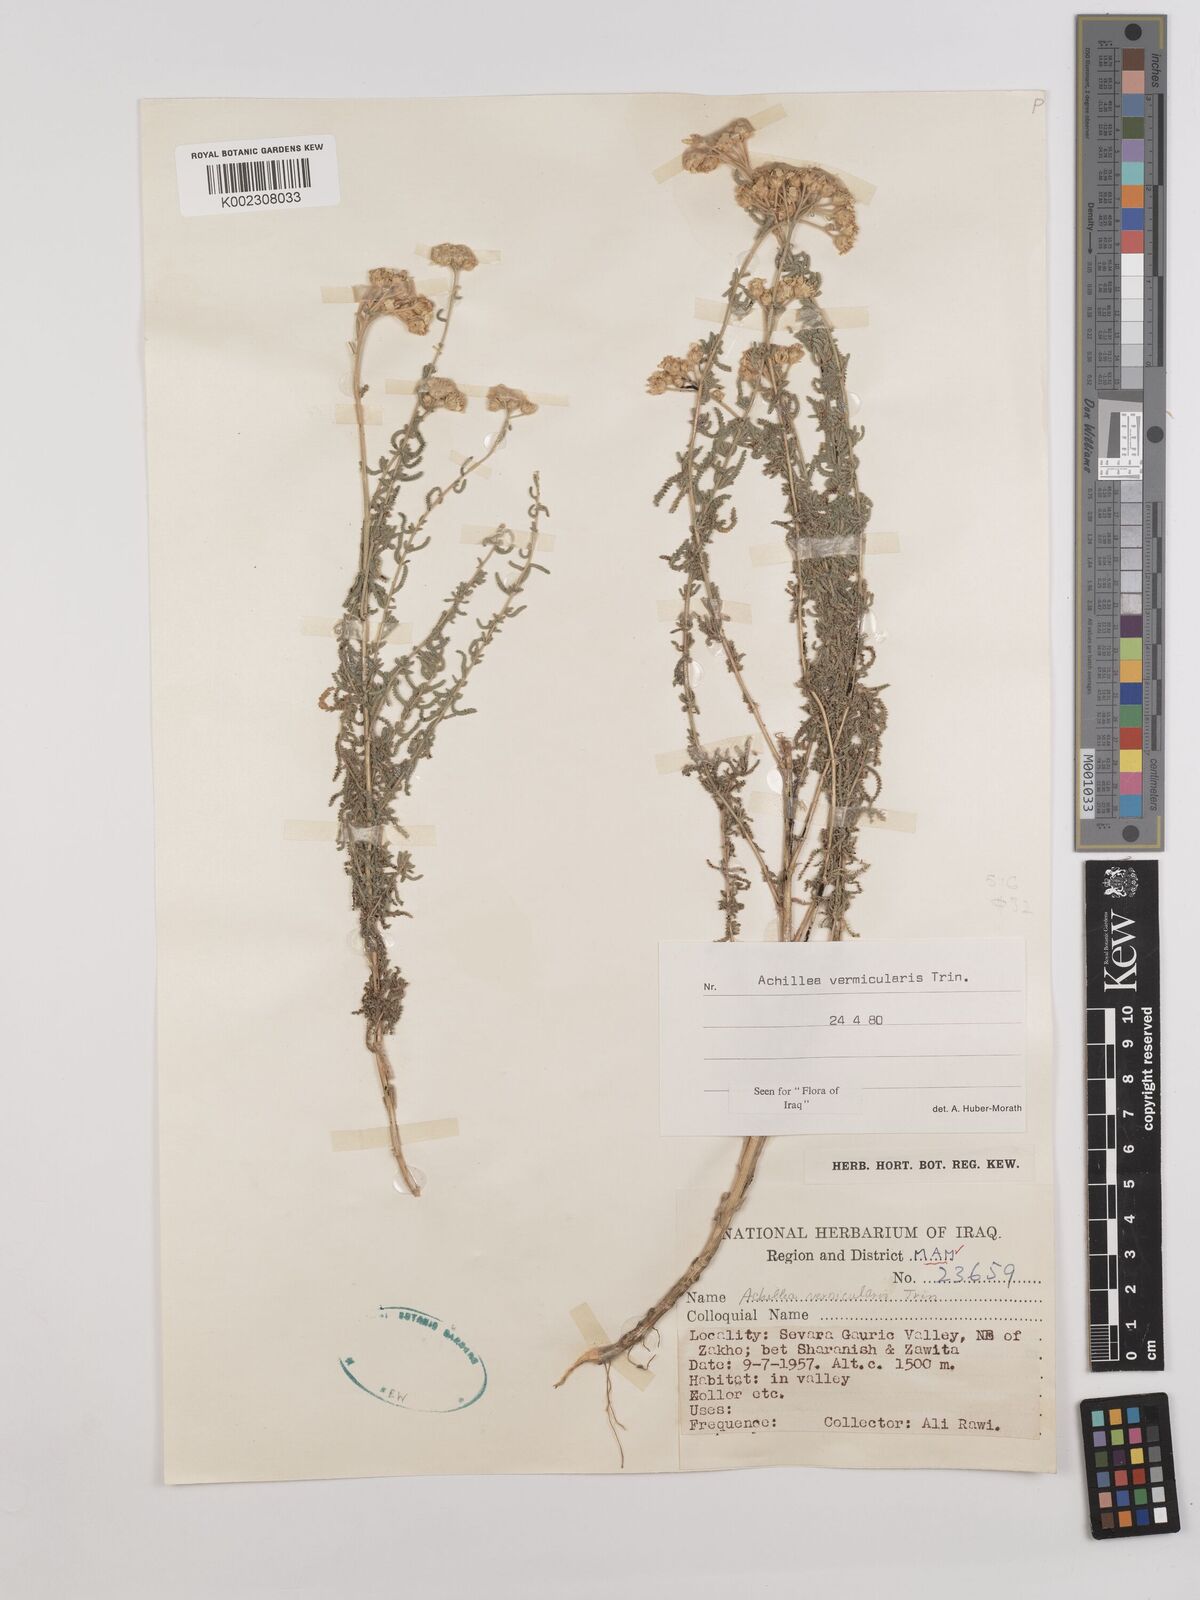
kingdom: Plantae
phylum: Tracheophyta
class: Magnoliopsida
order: Asterales
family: Asteraceae
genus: Achillea
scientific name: Achillea vermicularis
